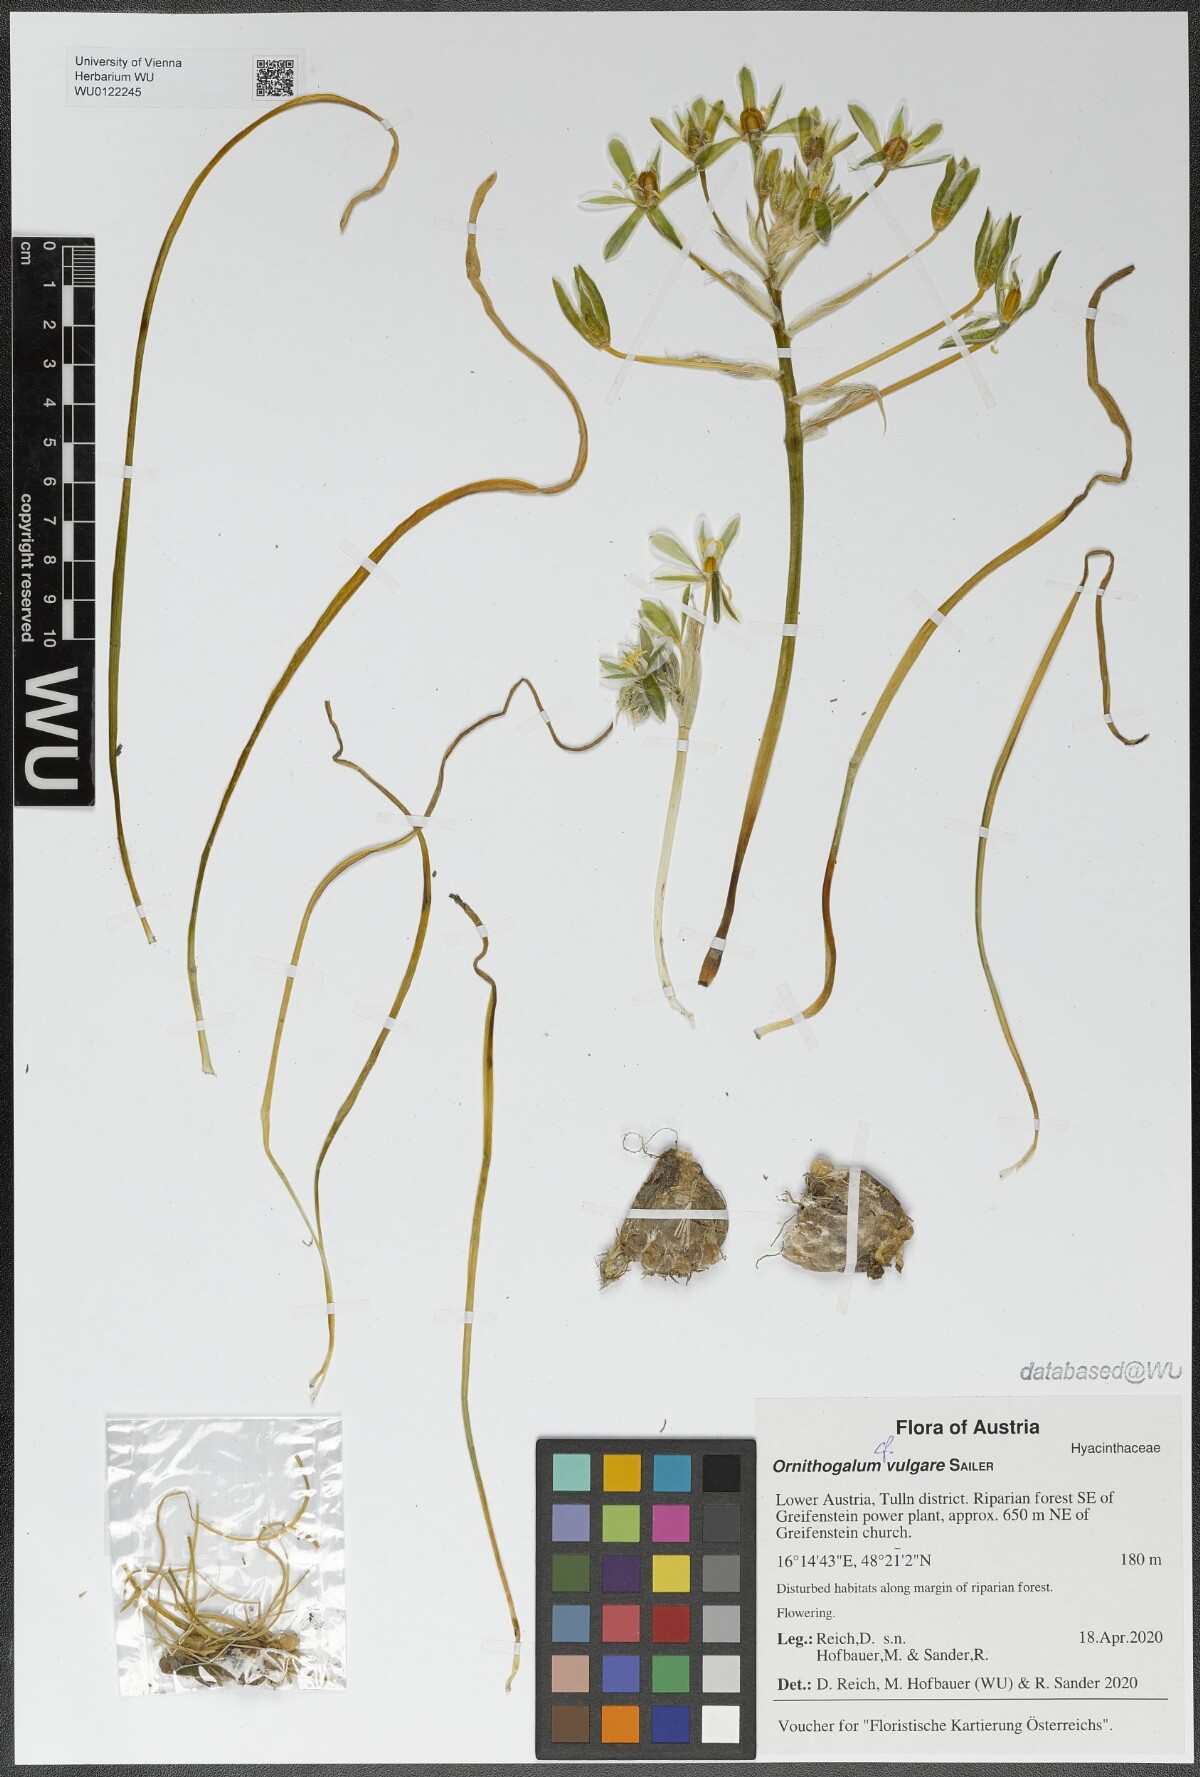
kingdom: Plantae
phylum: Tracheophyta
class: Liliopsida
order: Asparagales
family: Asparagaceae
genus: Ornithogalum
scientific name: Ornithogalum vulgare
